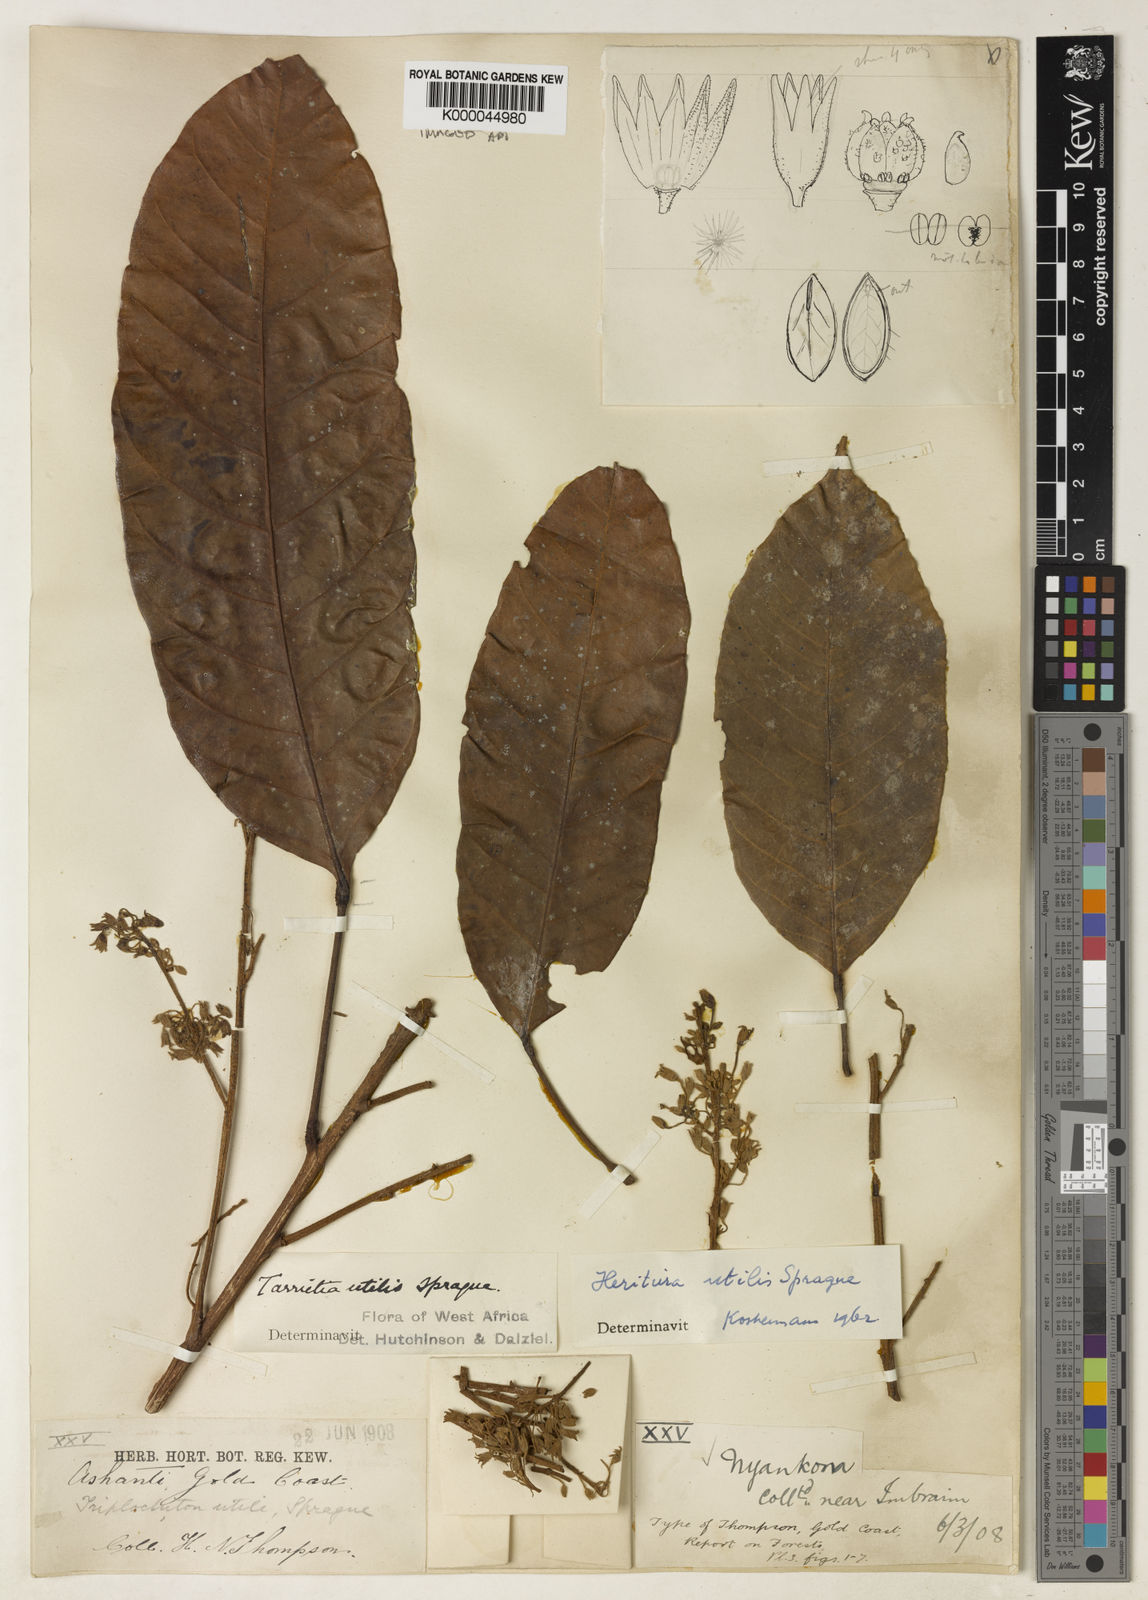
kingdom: Plantae
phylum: Tracheophyta
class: Magnoliopsida
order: Malvales
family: Malvaceae
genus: Heritiera
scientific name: Heritiera utilis
